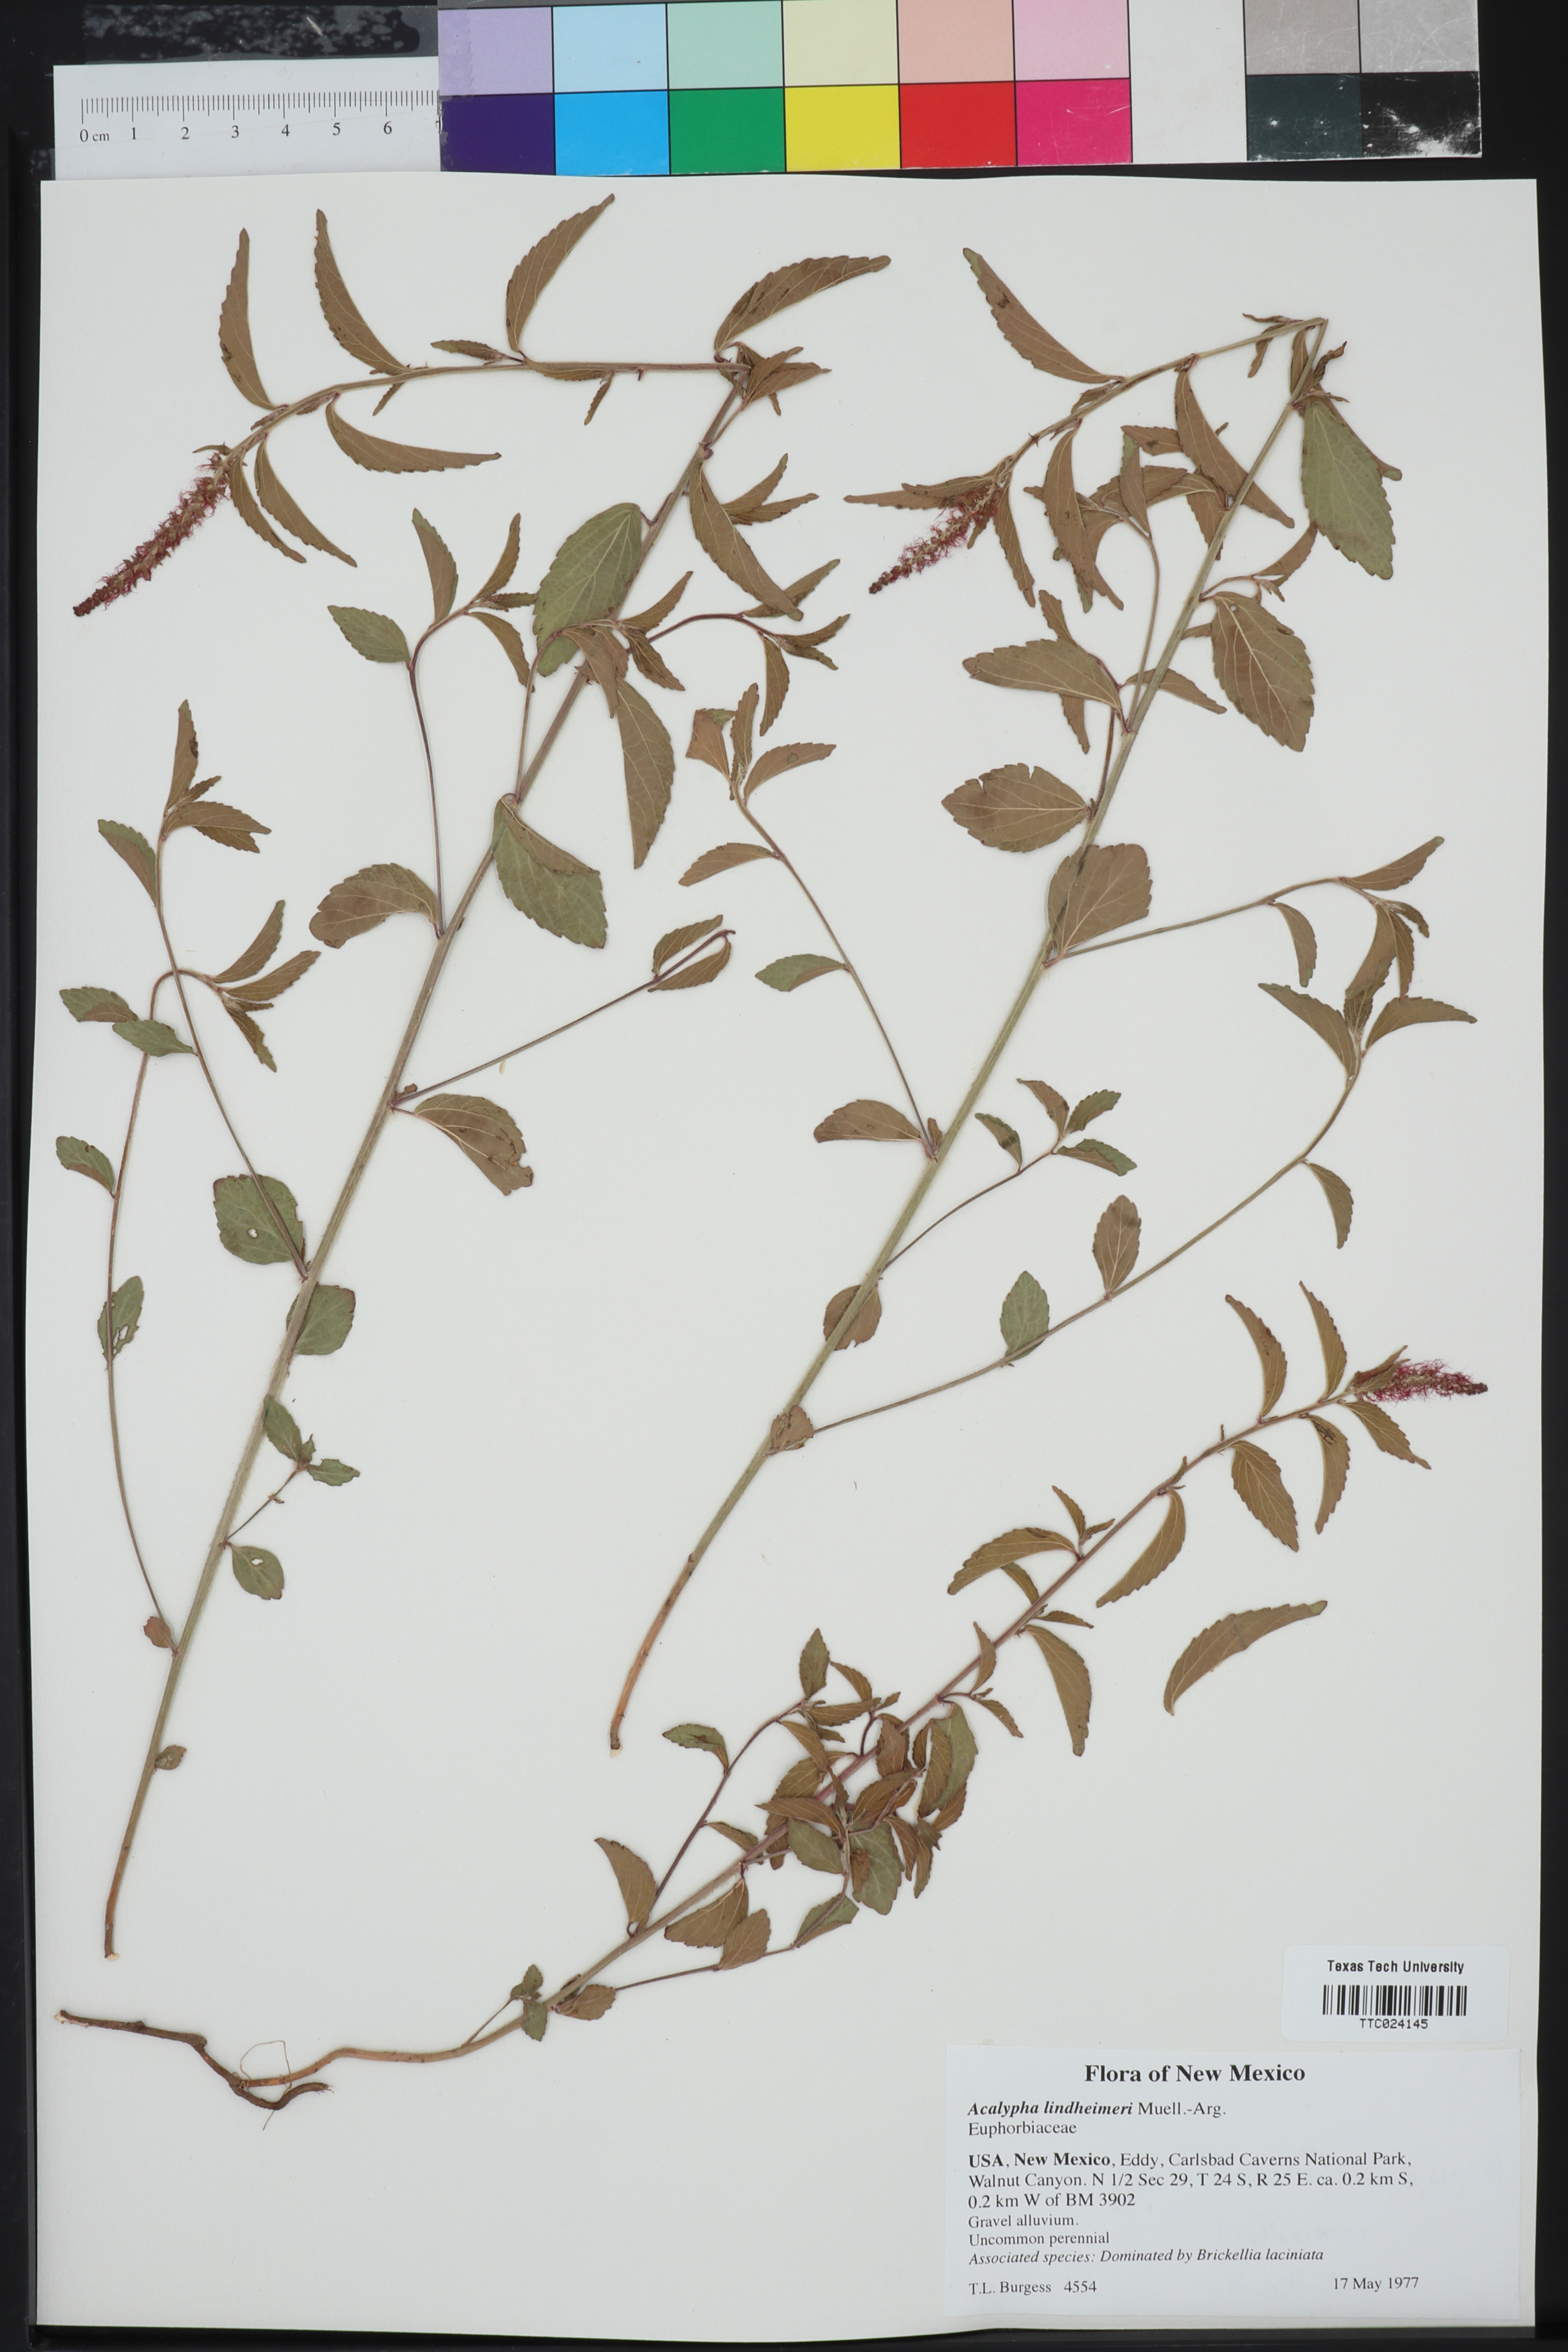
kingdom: Plantae
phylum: Tracheophyta
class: Magnoliopsida
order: Malpighiales
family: Euphorbiaceae
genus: Acalypha
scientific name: Acalypha phleoides
